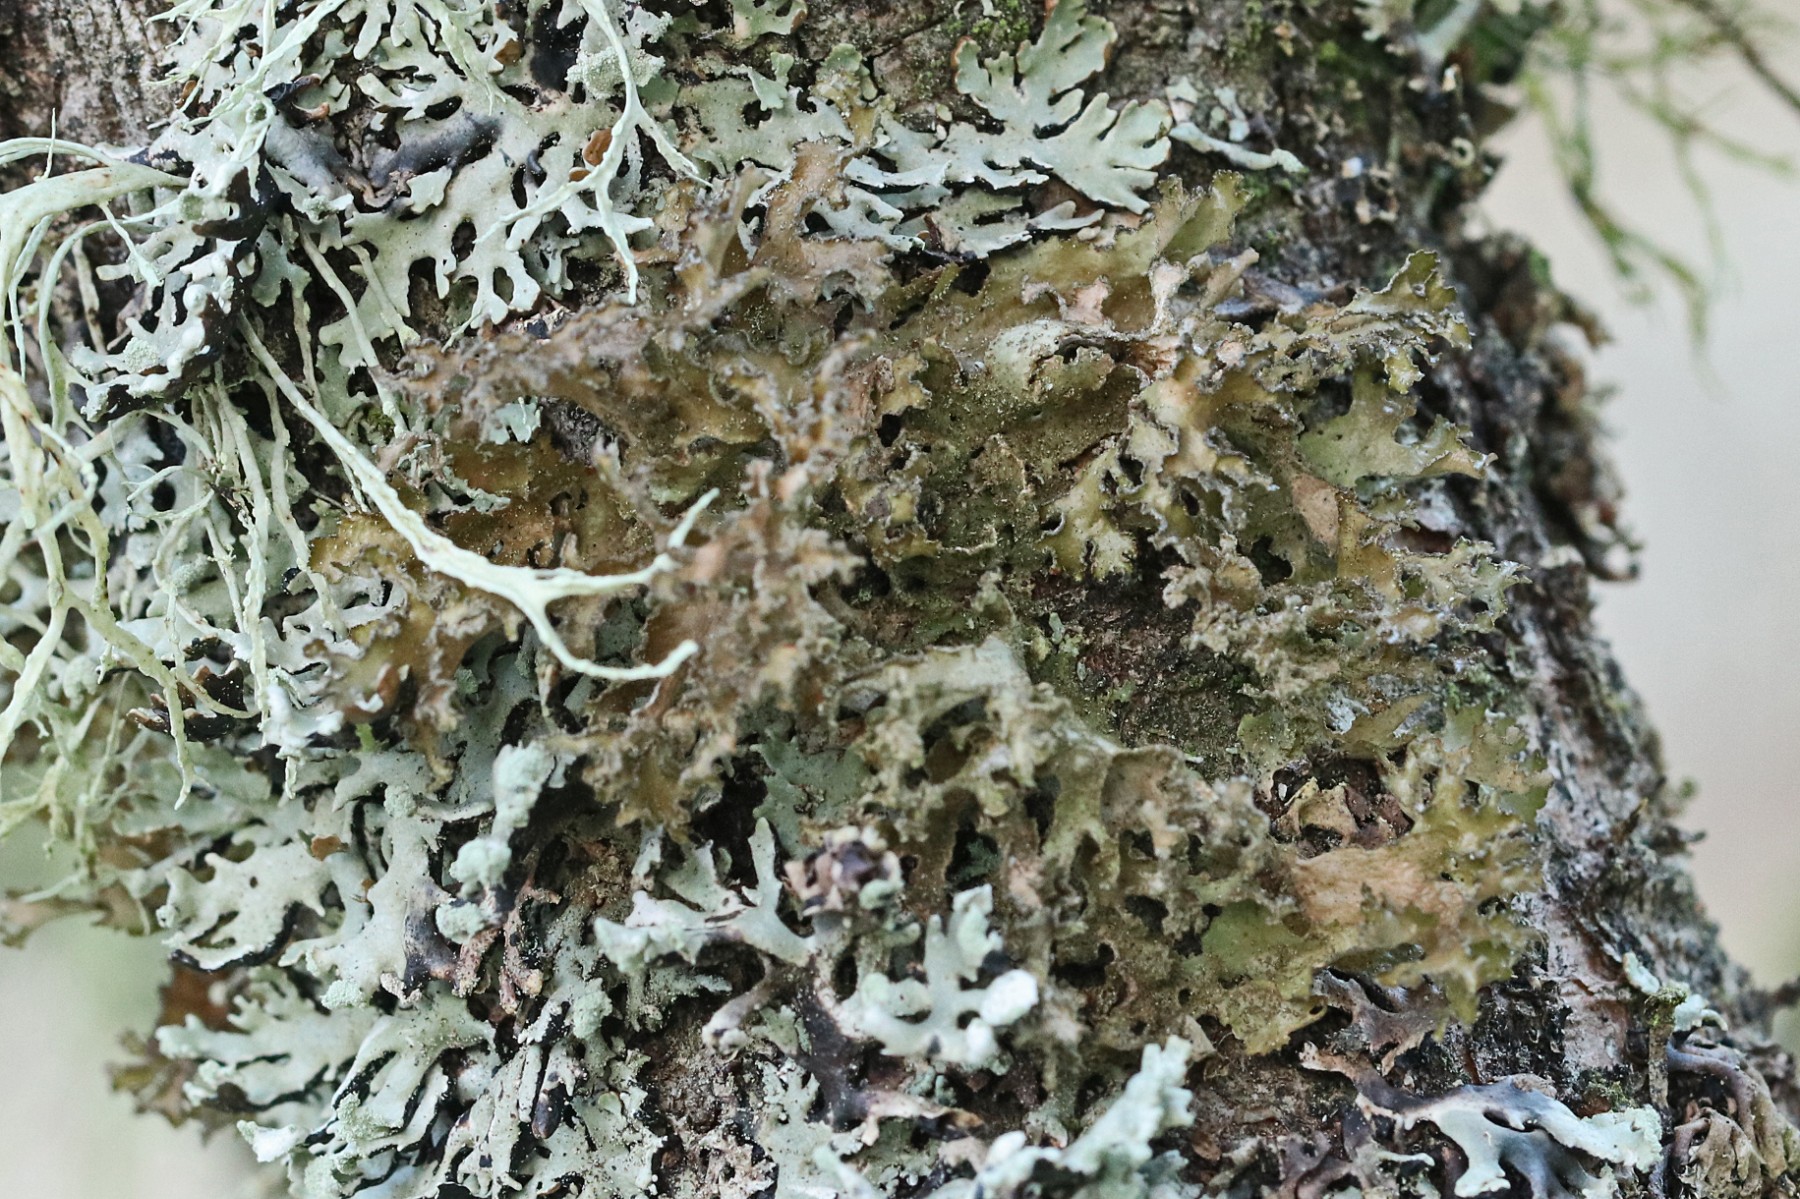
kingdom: Fungi
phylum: Ascomycota
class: Lecanoromycetes
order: Lecanorales
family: Parmeliaceae
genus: Nephromopsis
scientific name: Nephromopsis chlorophylla
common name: olivenbrun kruslav
